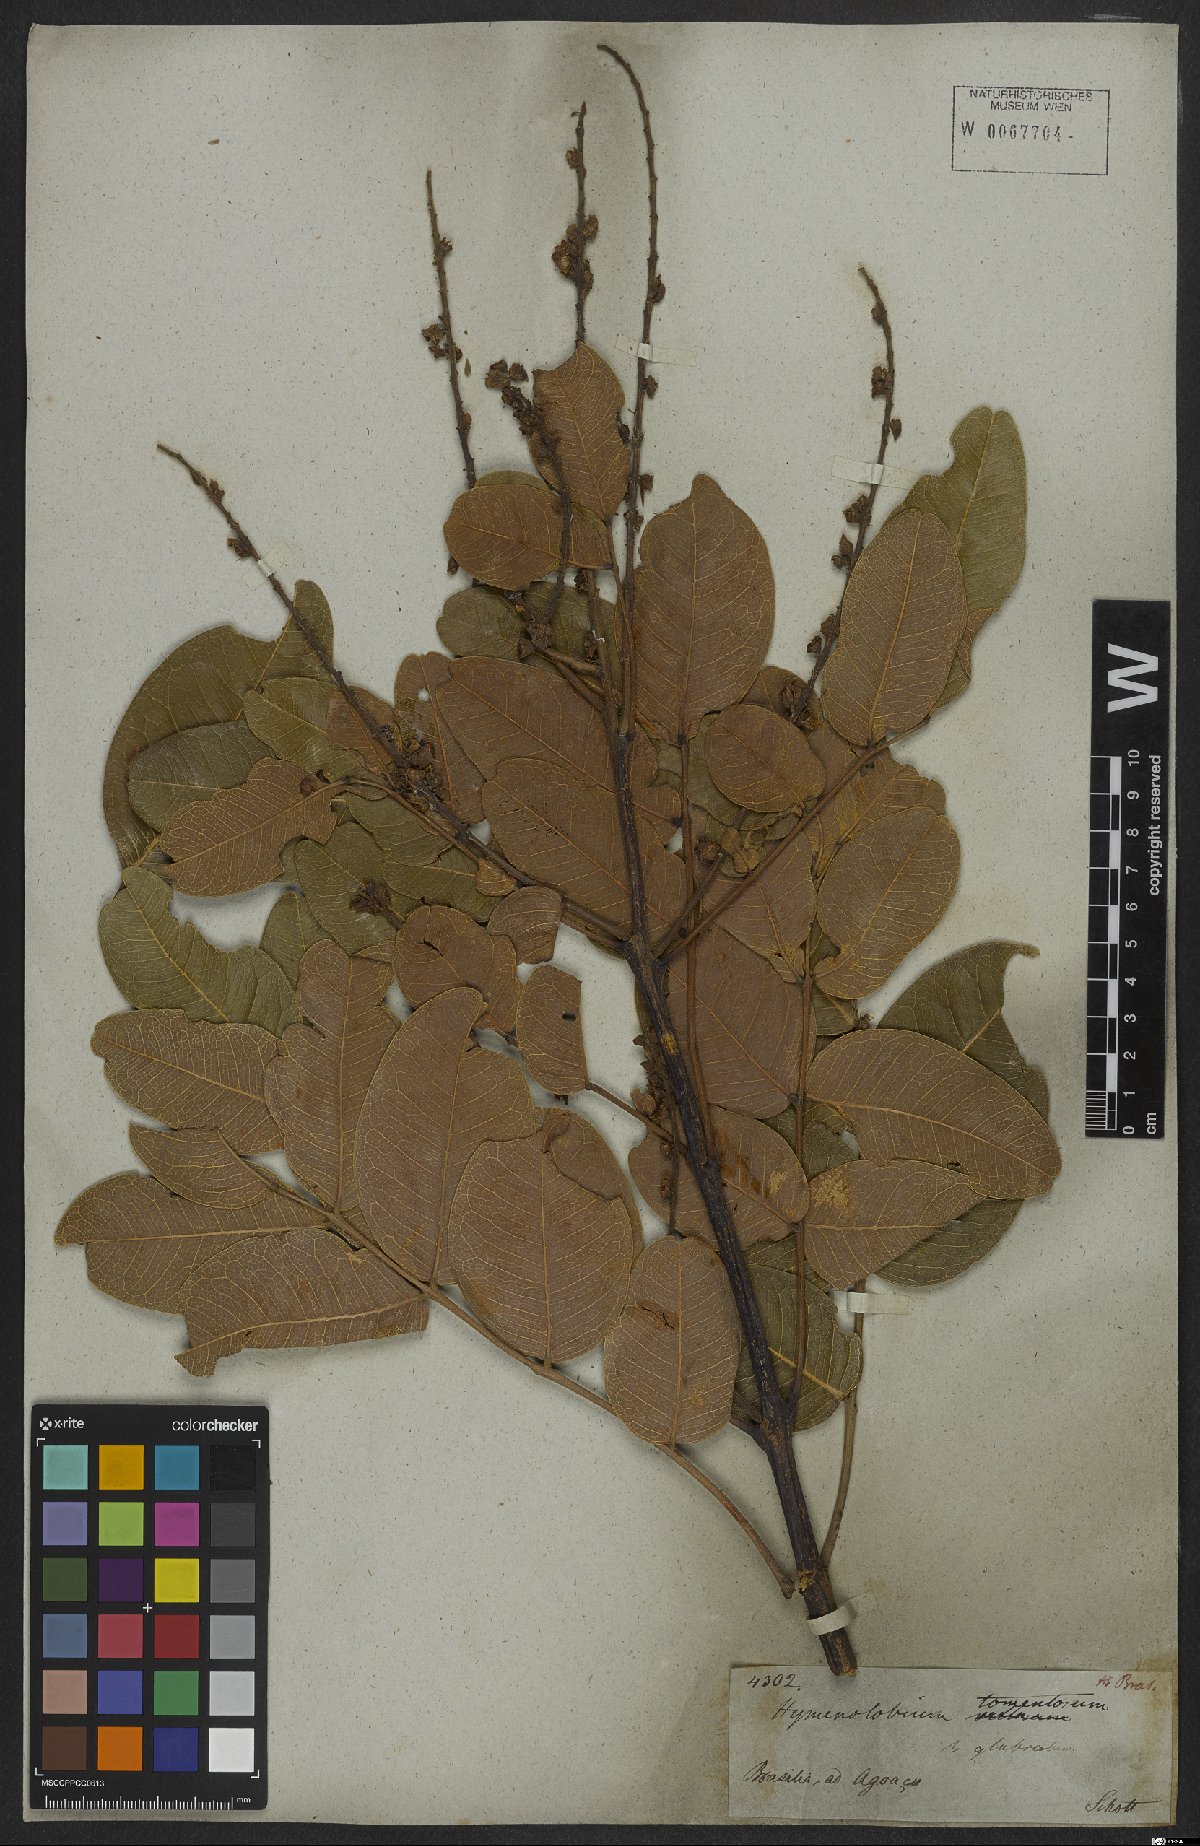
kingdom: Plantae
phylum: Tracheophyta
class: Magnoliopsida
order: Fabales
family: Fabaceae
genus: Hymenolobium
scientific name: Hymenolobium
